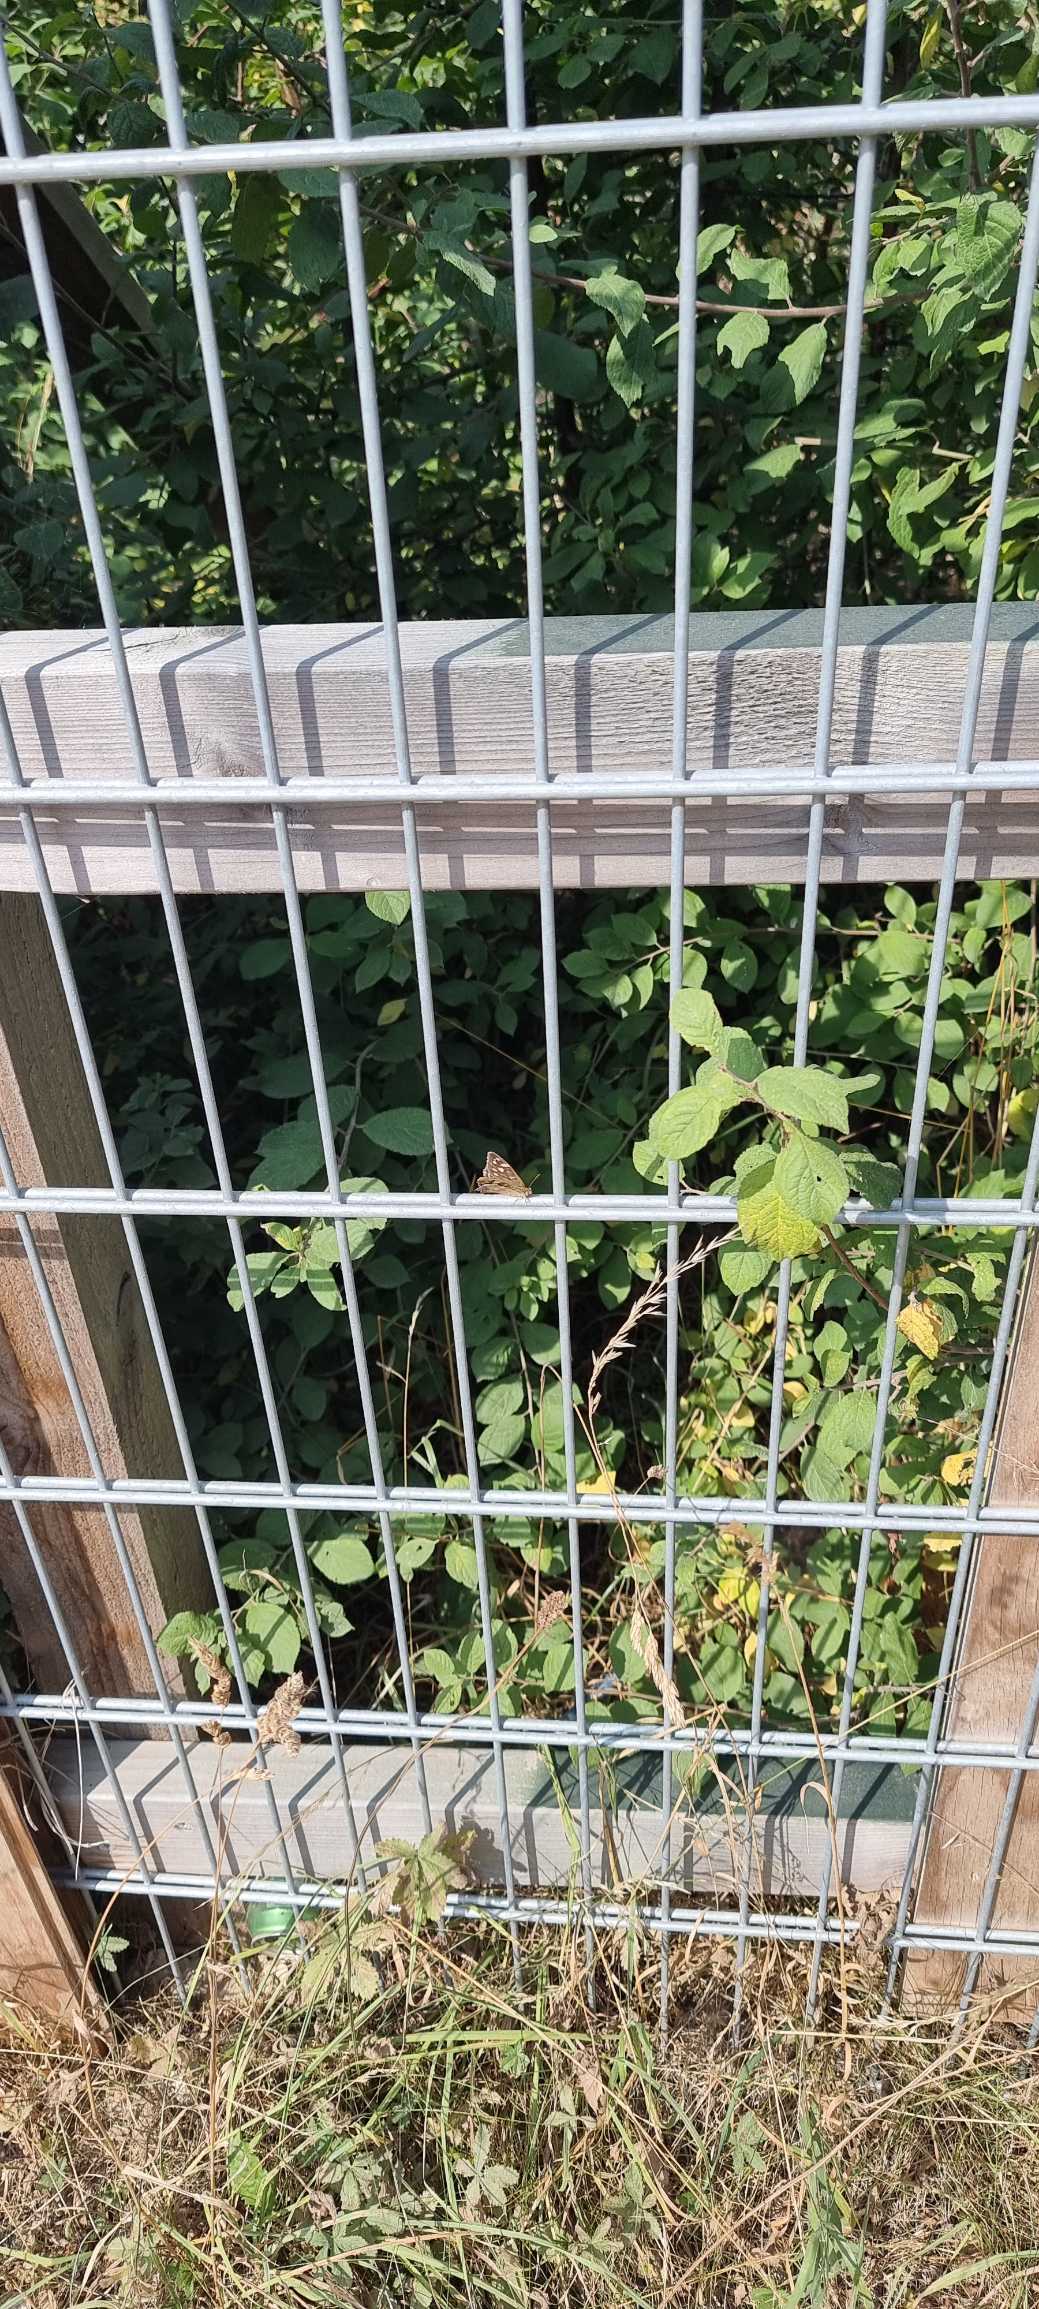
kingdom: Animalia
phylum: Arthropoda
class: Insecta
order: Lepidoptera
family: Nymphalidae
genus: Pararge
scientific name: Pararge aegeria
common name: Skovrandøje
